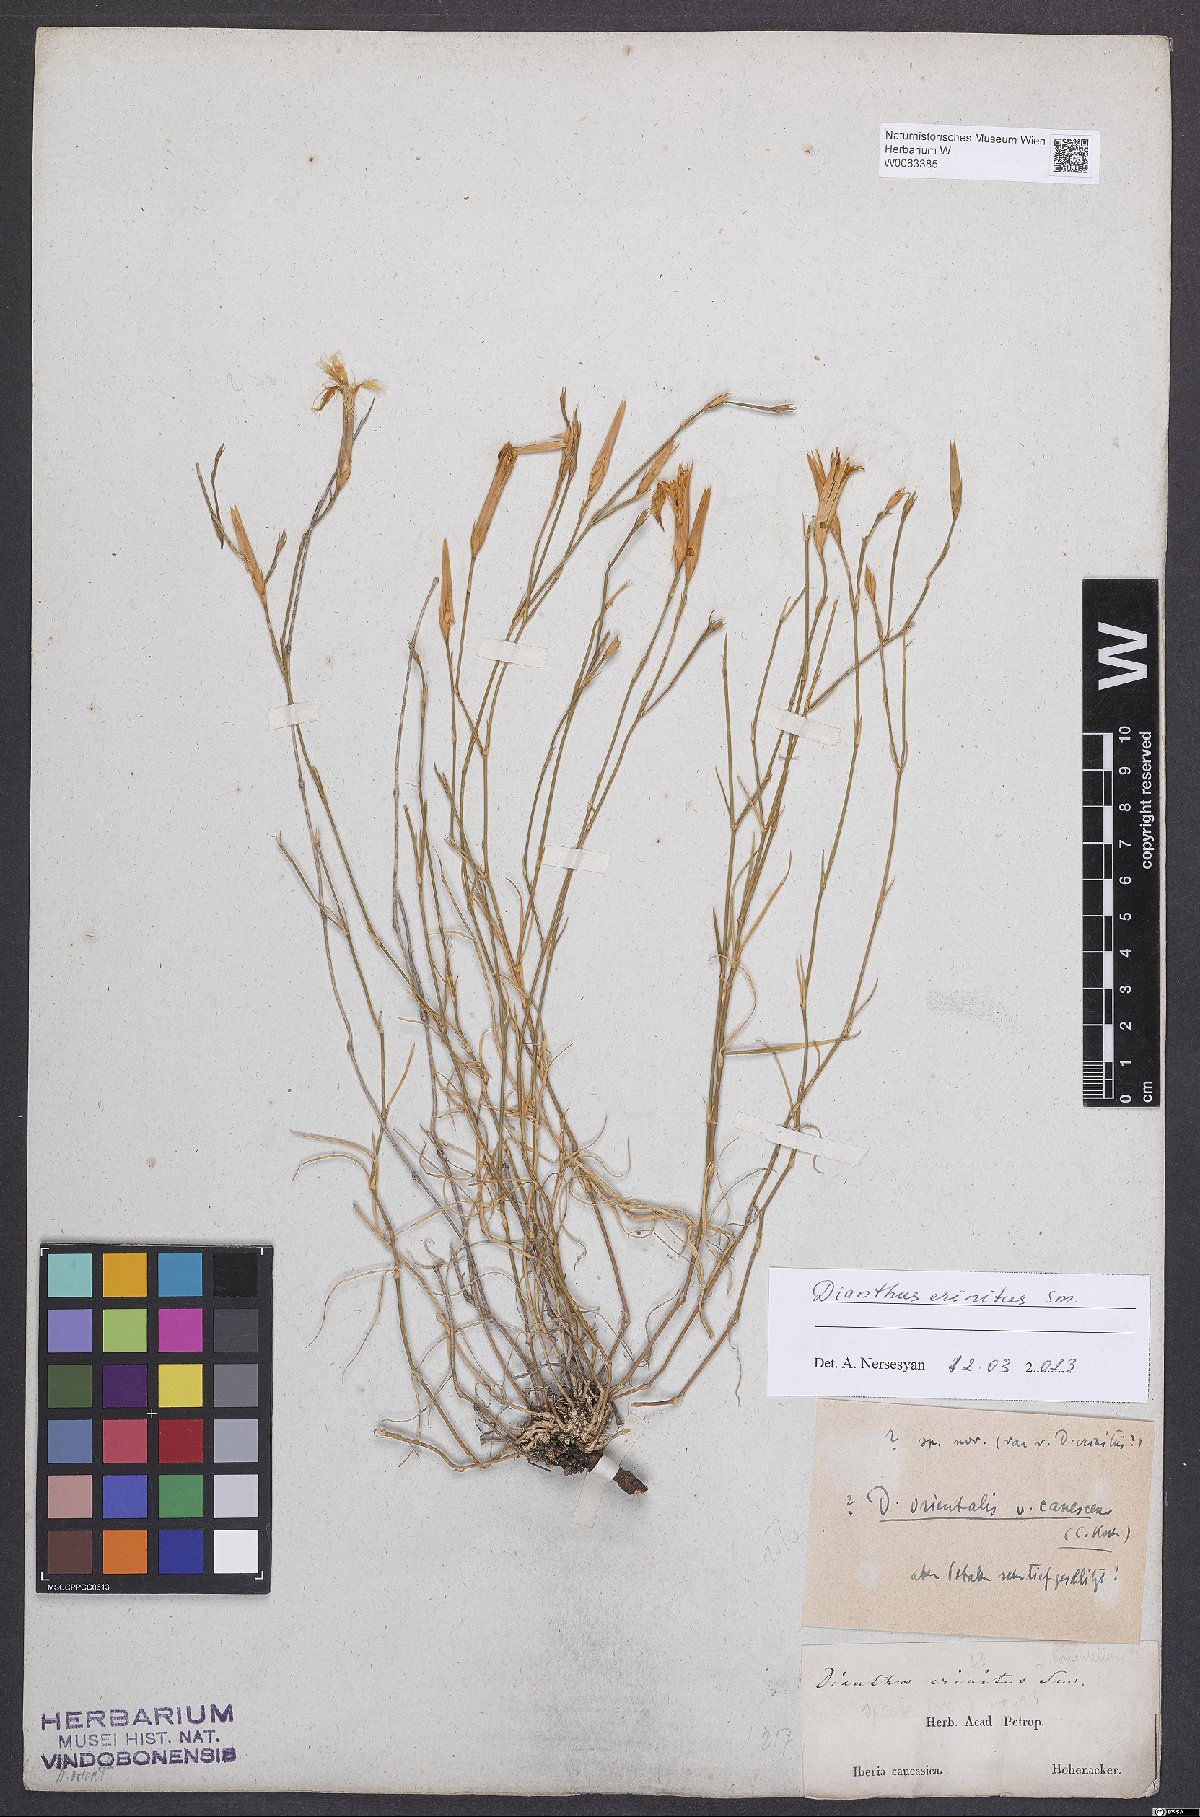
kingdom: Plantae
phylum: Tracheophyta
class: Magnoliopsida
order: Caryophyllales
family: Caryophyllaceae
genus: Dianthus
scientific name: Dianthus crinitus
